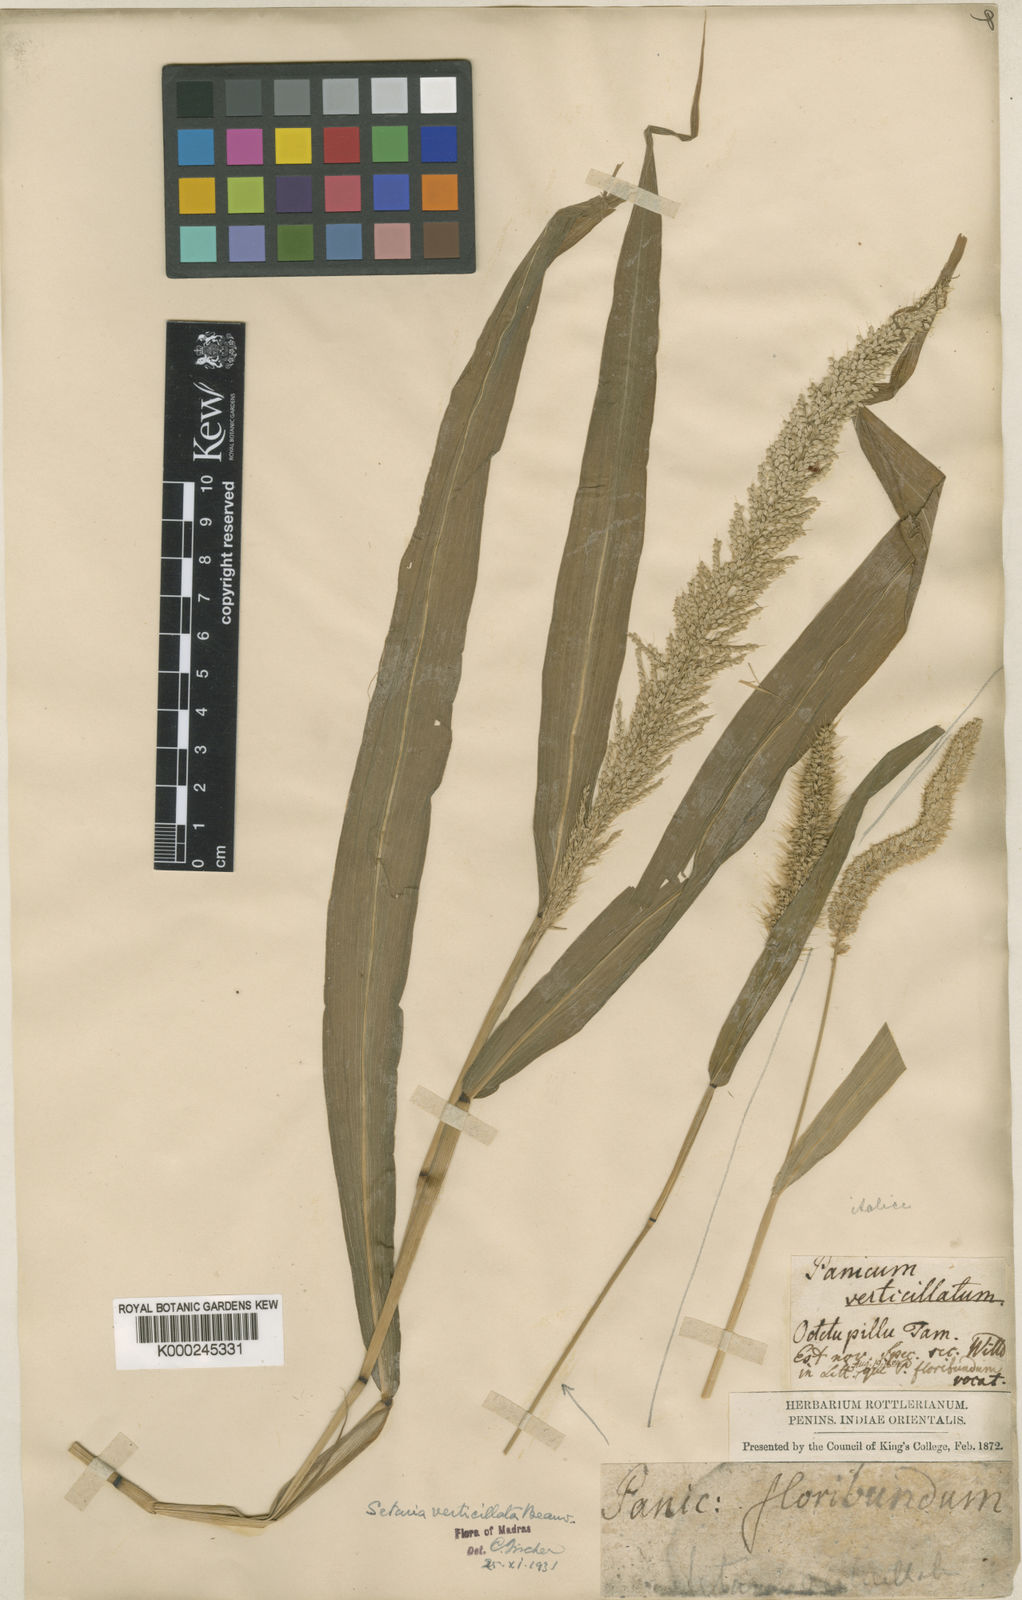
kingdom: Plantae
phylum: Tracheophyta
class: Liliopsida
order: Poales
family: Poaceae
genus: Setaria
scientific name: Setaria verticillata
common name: Hooked bristlegrass
